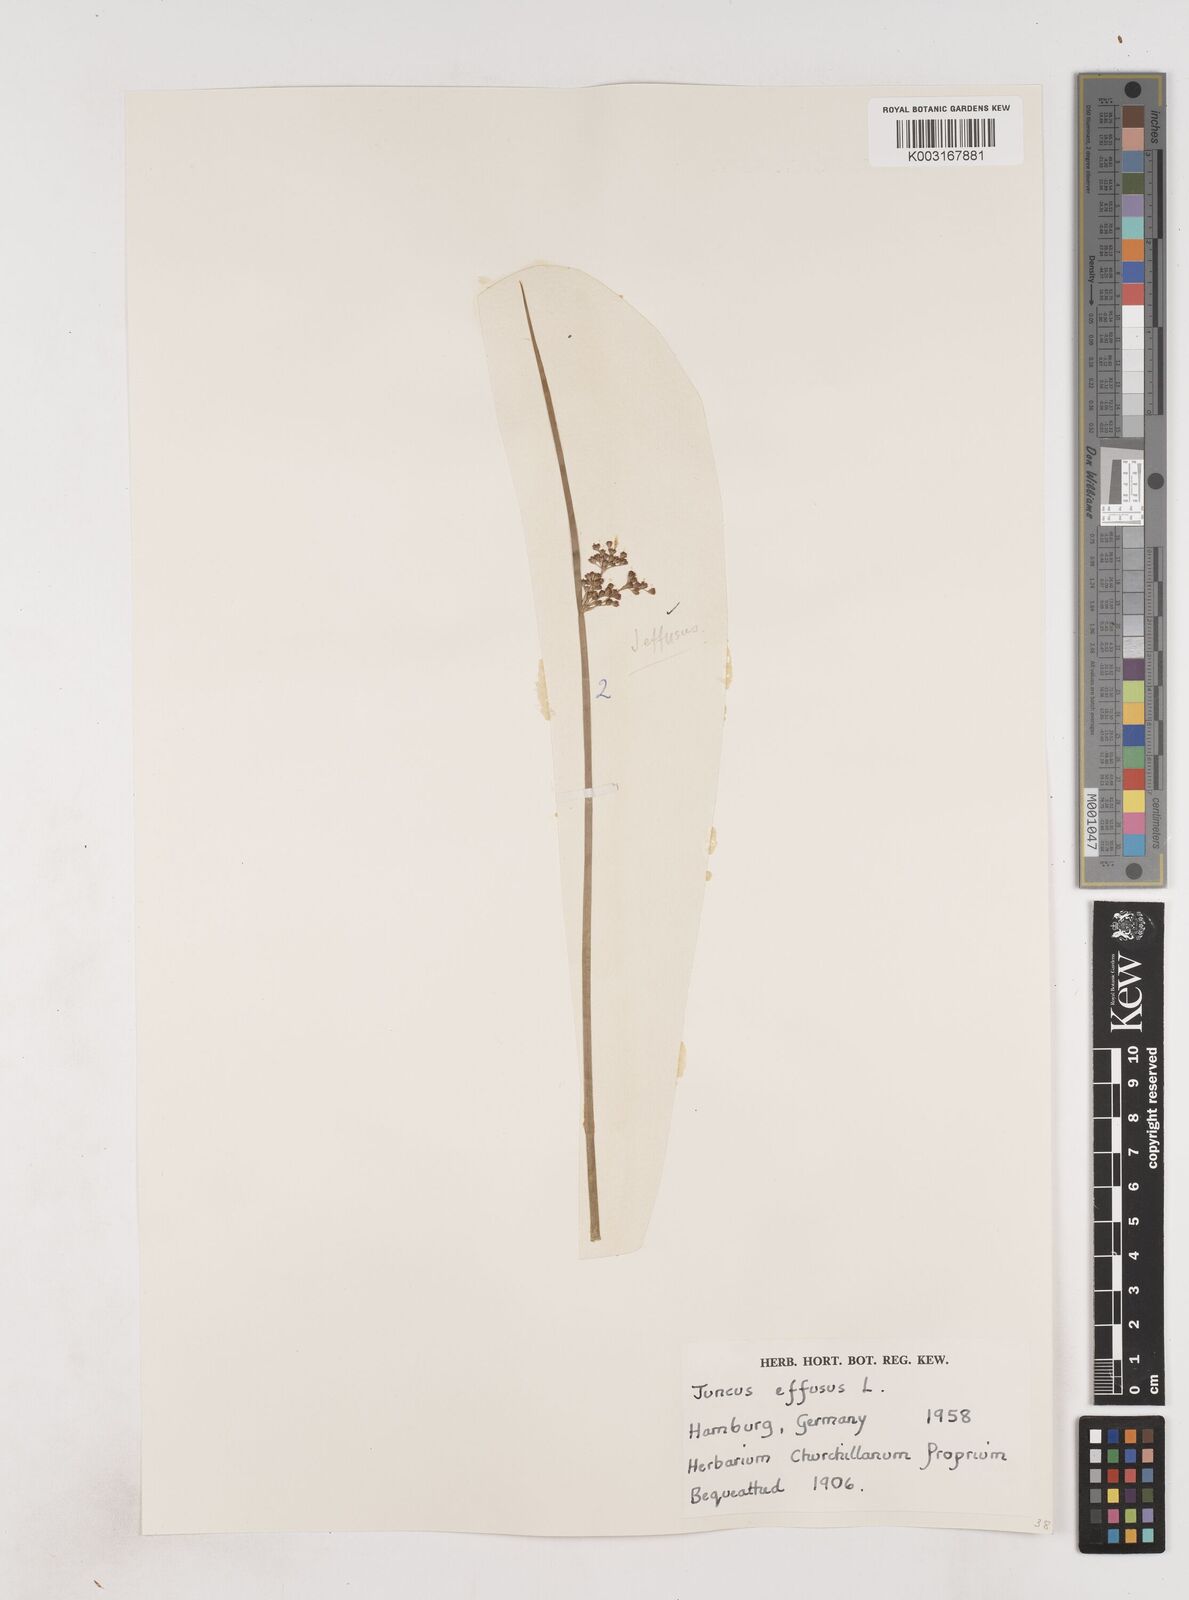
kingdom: Plantae
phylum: Tracheophyta
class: Liliopsida
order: Poales
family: Juncaceae
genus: Juncus
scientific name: Juncus effusus
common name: Soft rush
